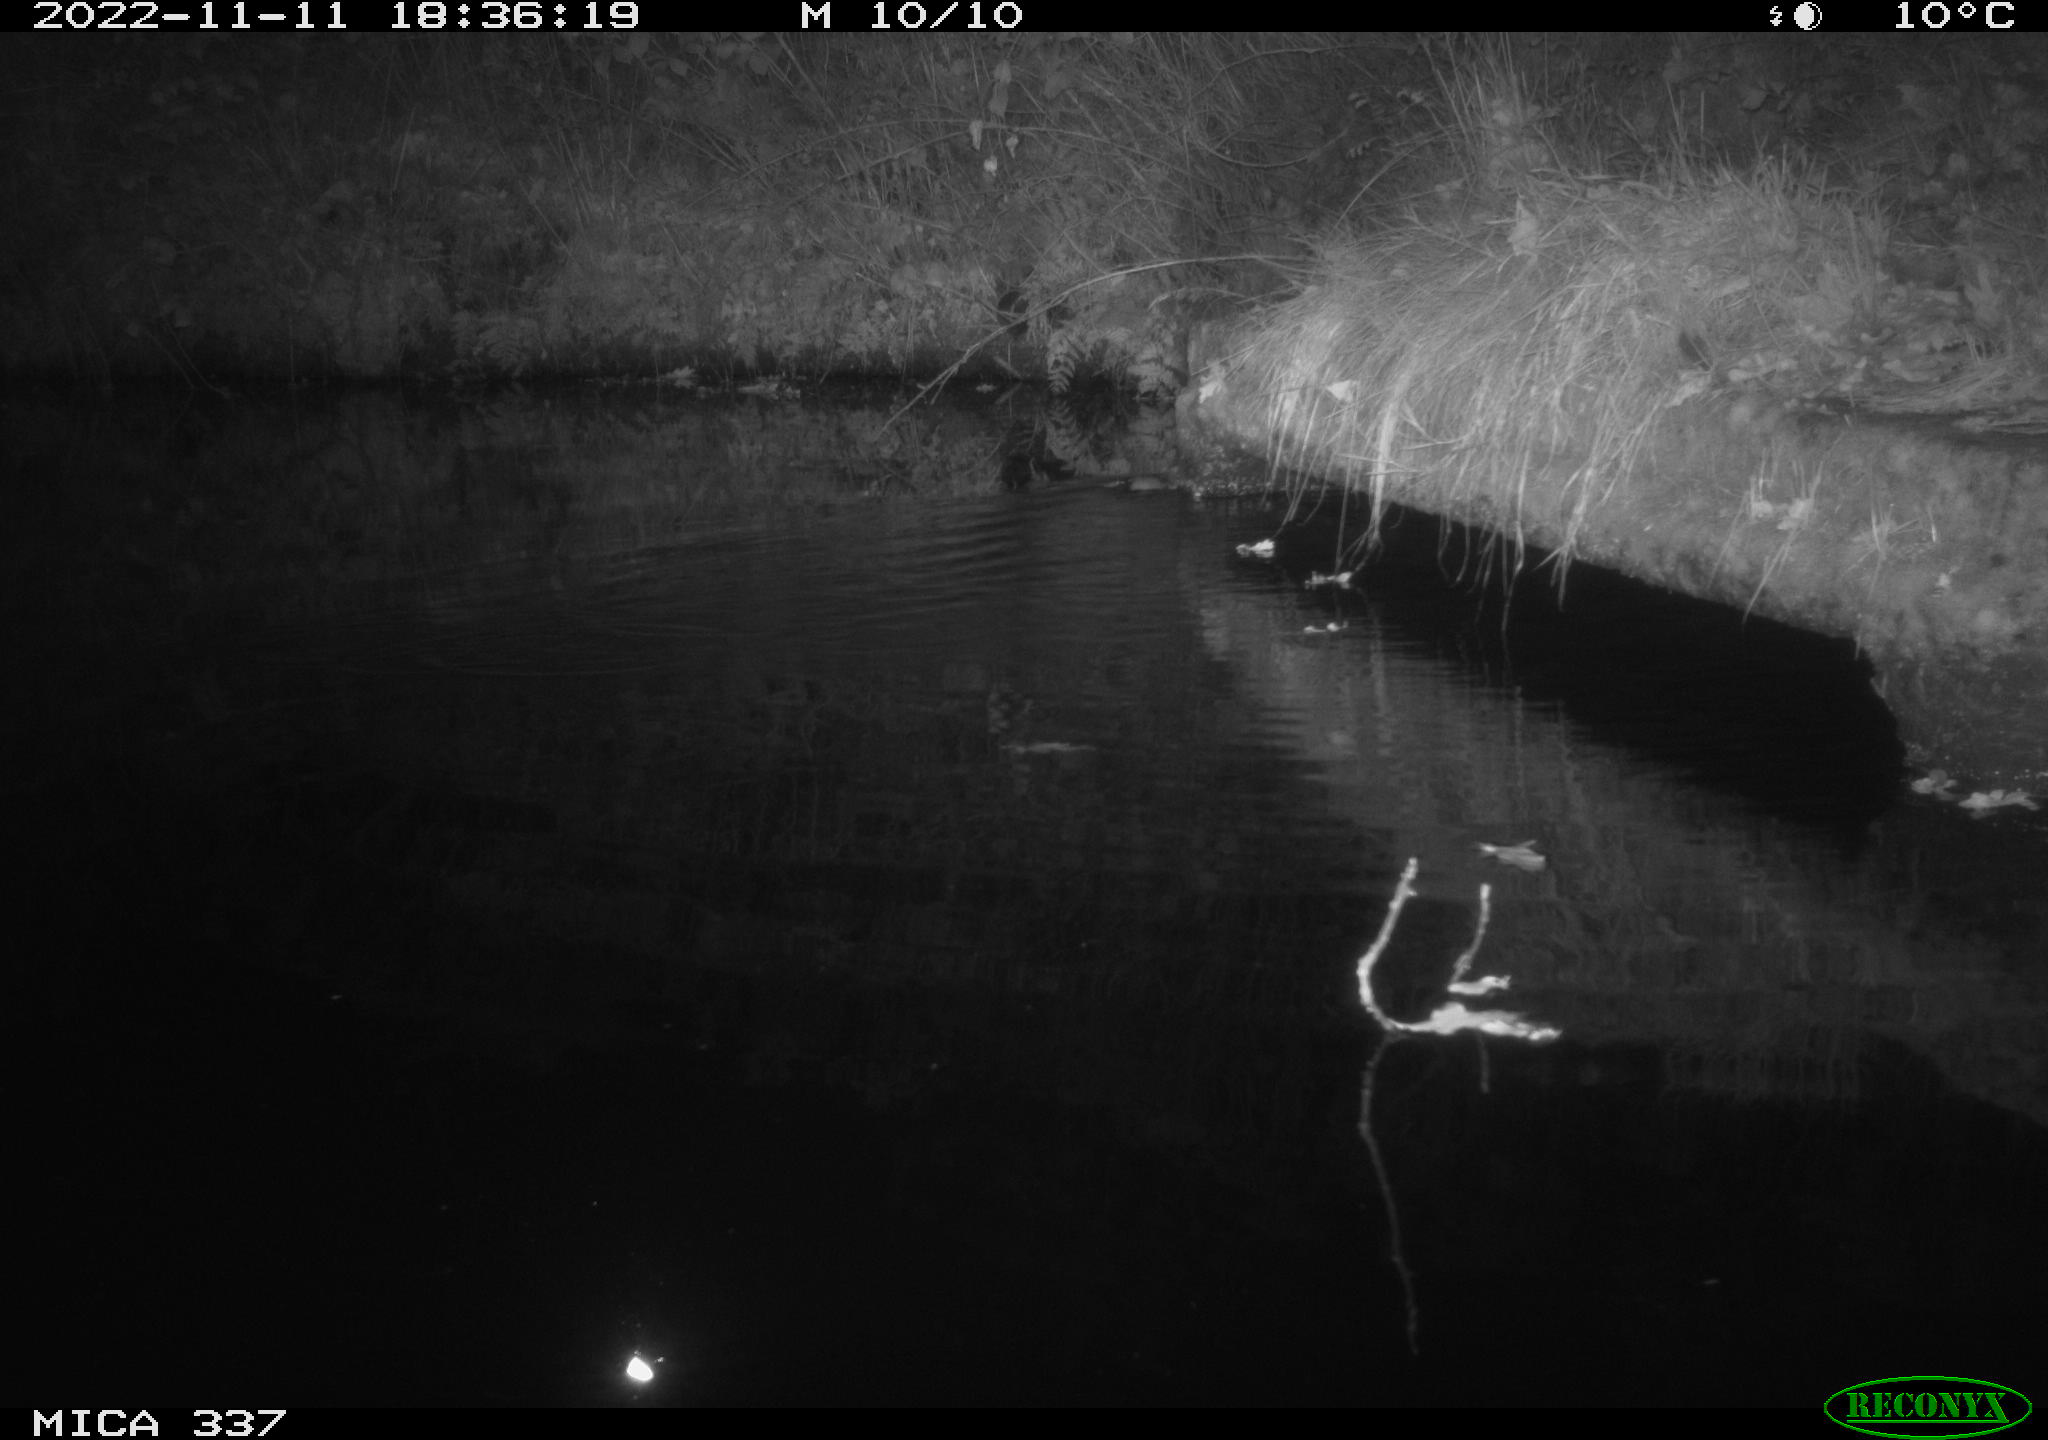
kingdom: Animalia
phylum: Chordata
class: Mammalia
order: Rodentia
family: Muridae
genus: Rattus
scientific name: Rattus norvegicus
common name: Brown rat
